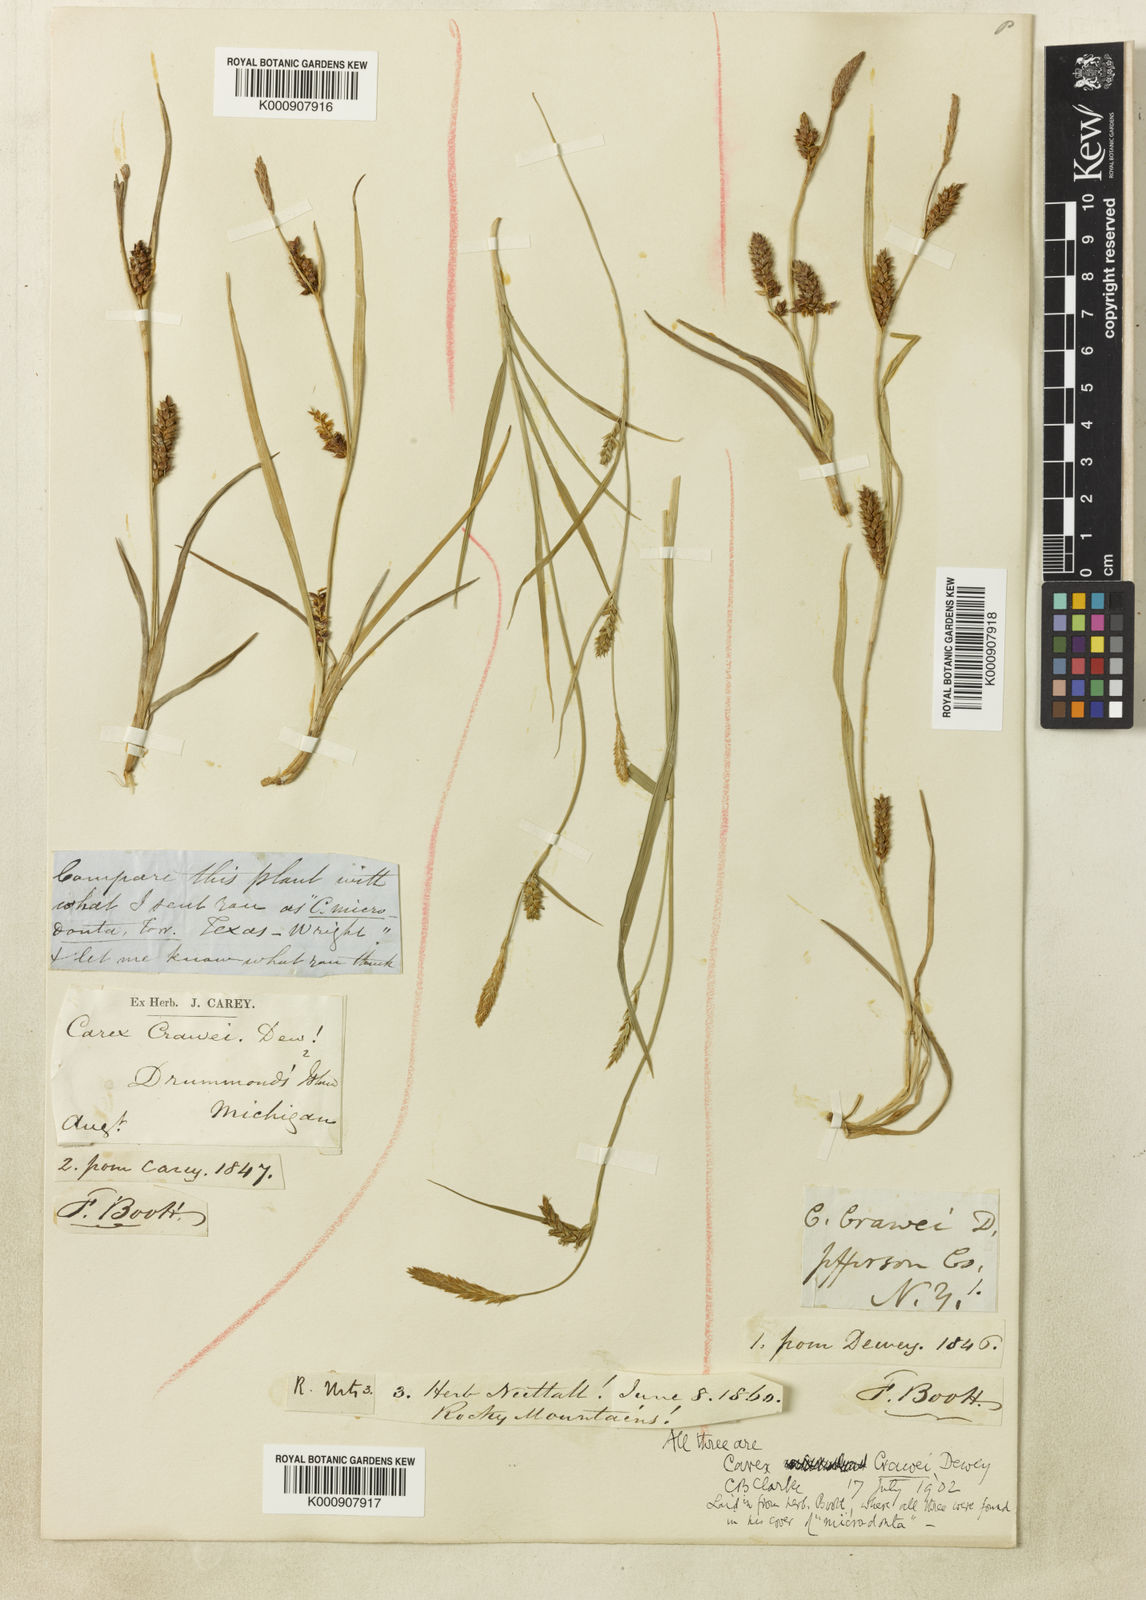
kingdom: Plantae
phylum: Tracheophyta
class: Liliopsida
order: Poales
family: Cyperaceae
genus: Carex
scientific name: Carex crawei
